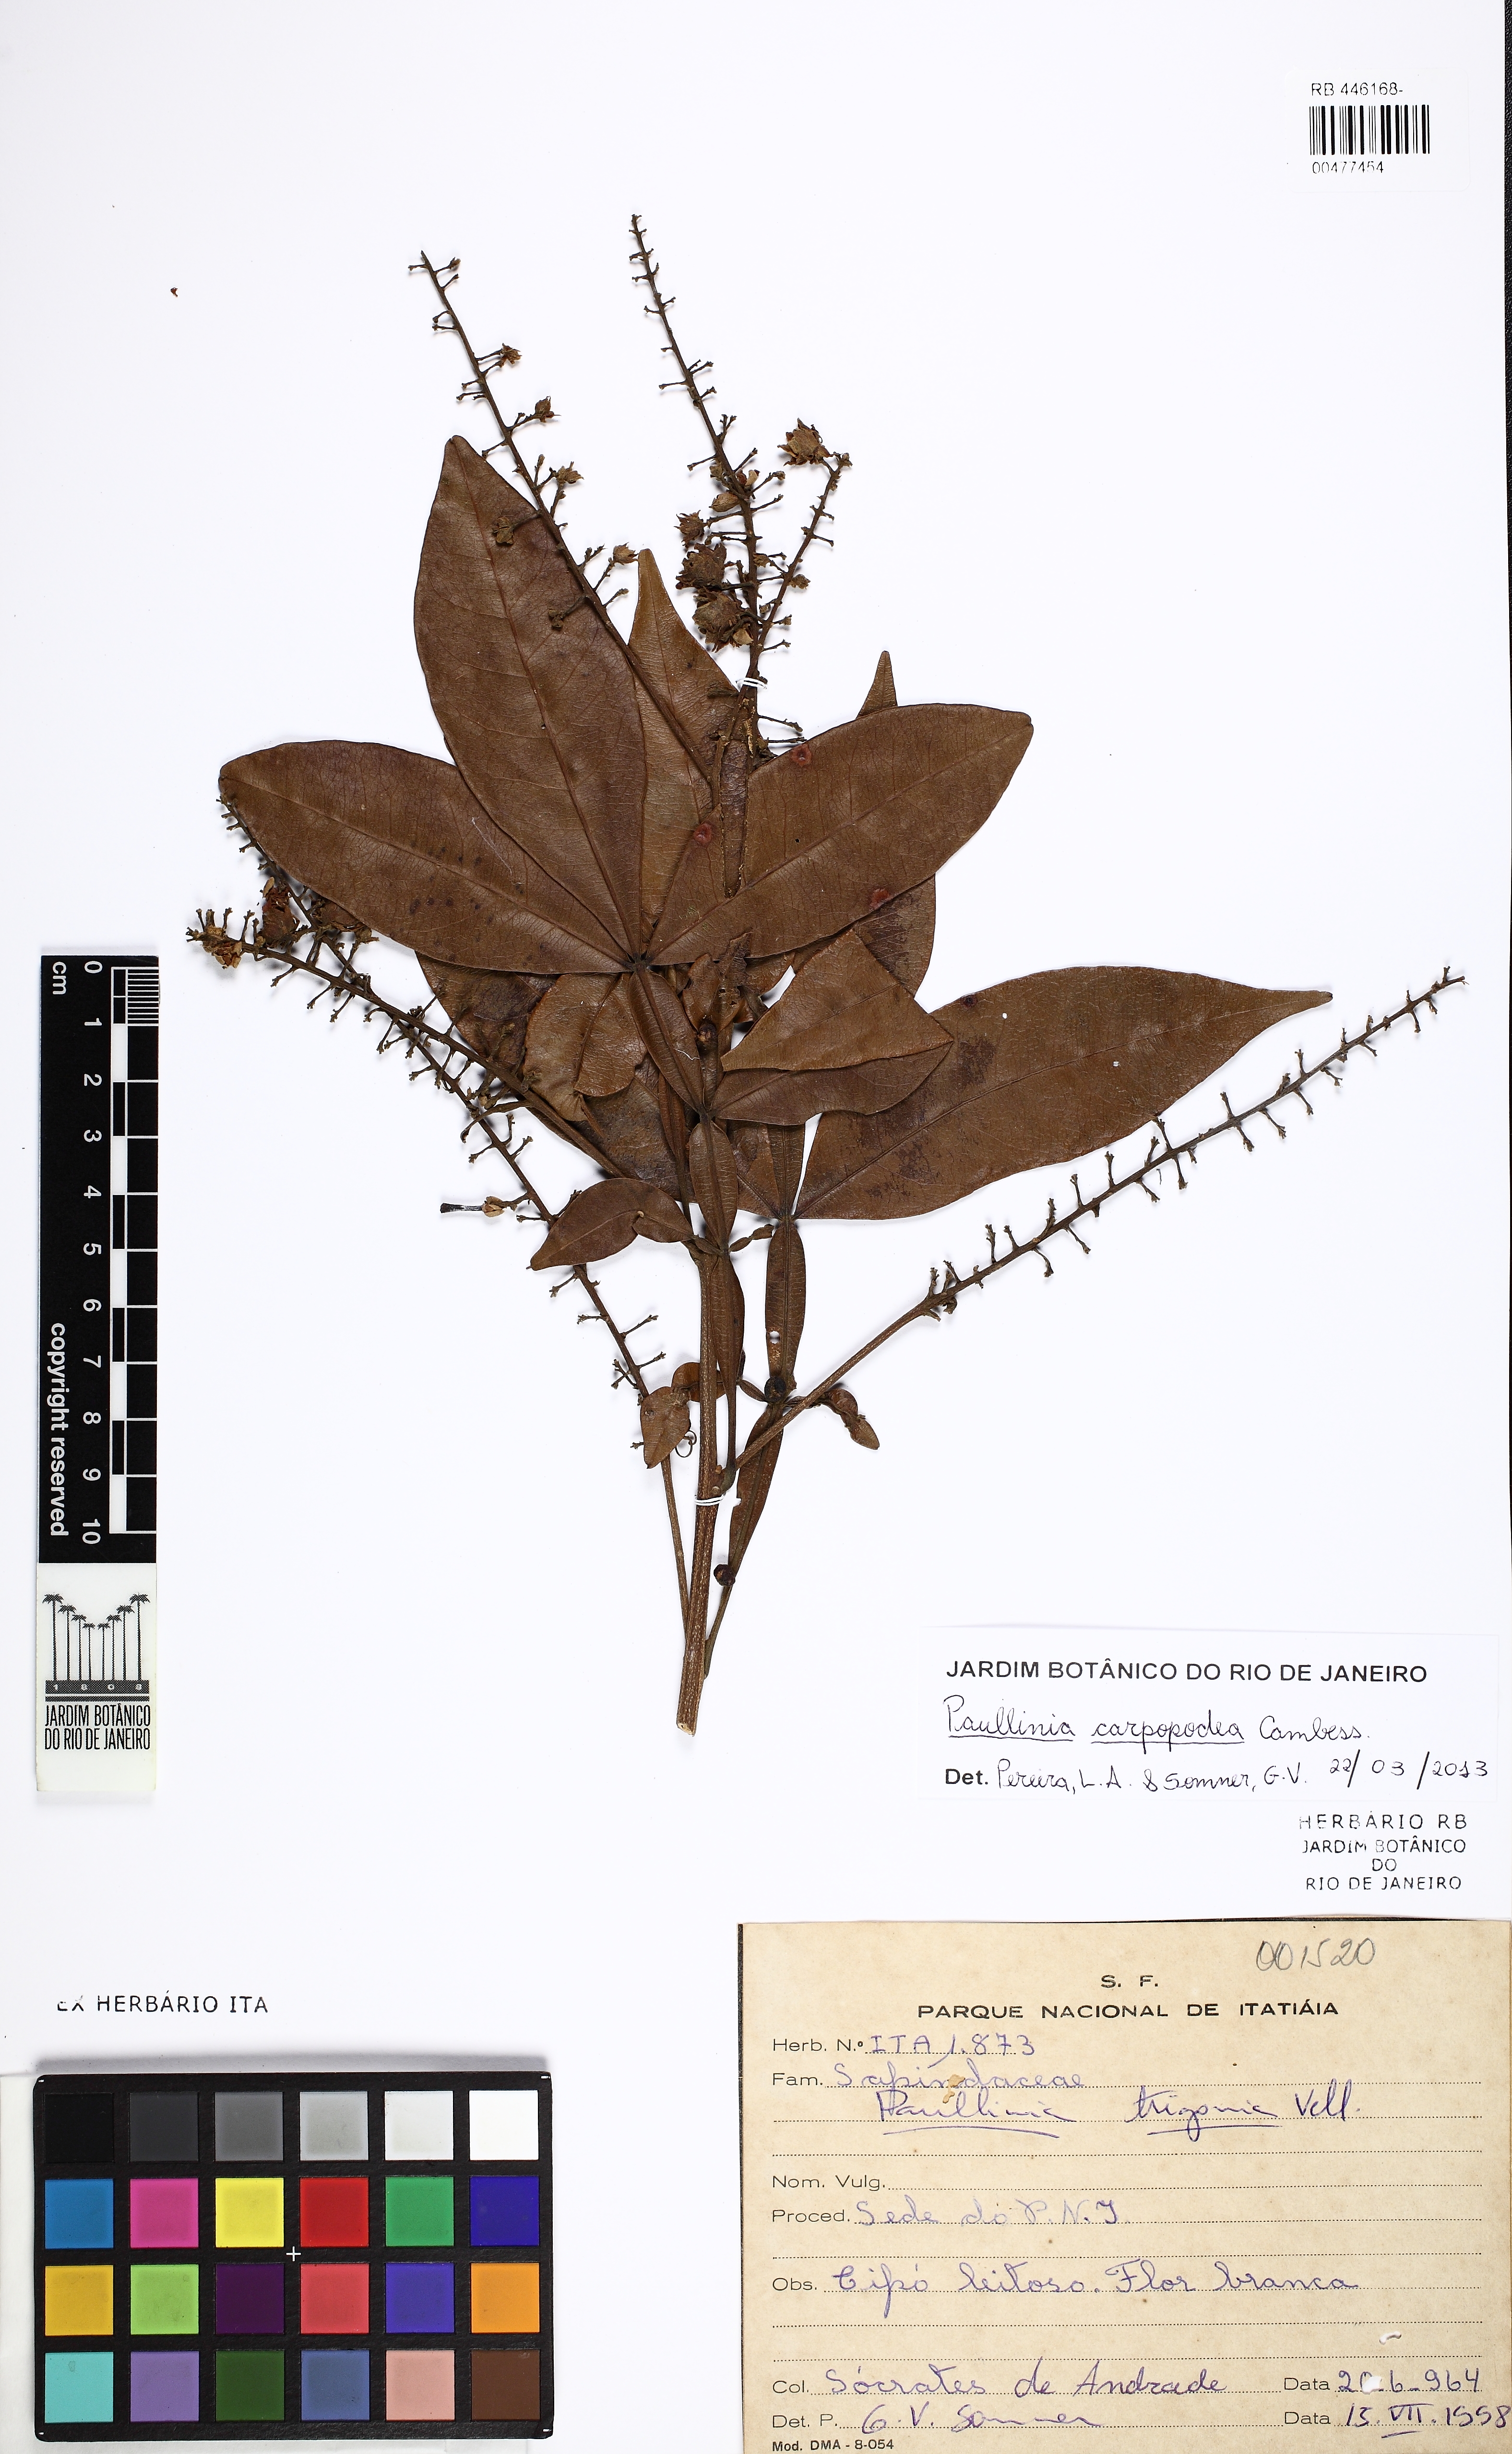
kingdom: Plantae
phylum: Tracheophyta
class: Magnoliopsida
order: Sapindales
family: Sapindaceae
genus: Paullinia
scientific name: Paullinia carpopodea
